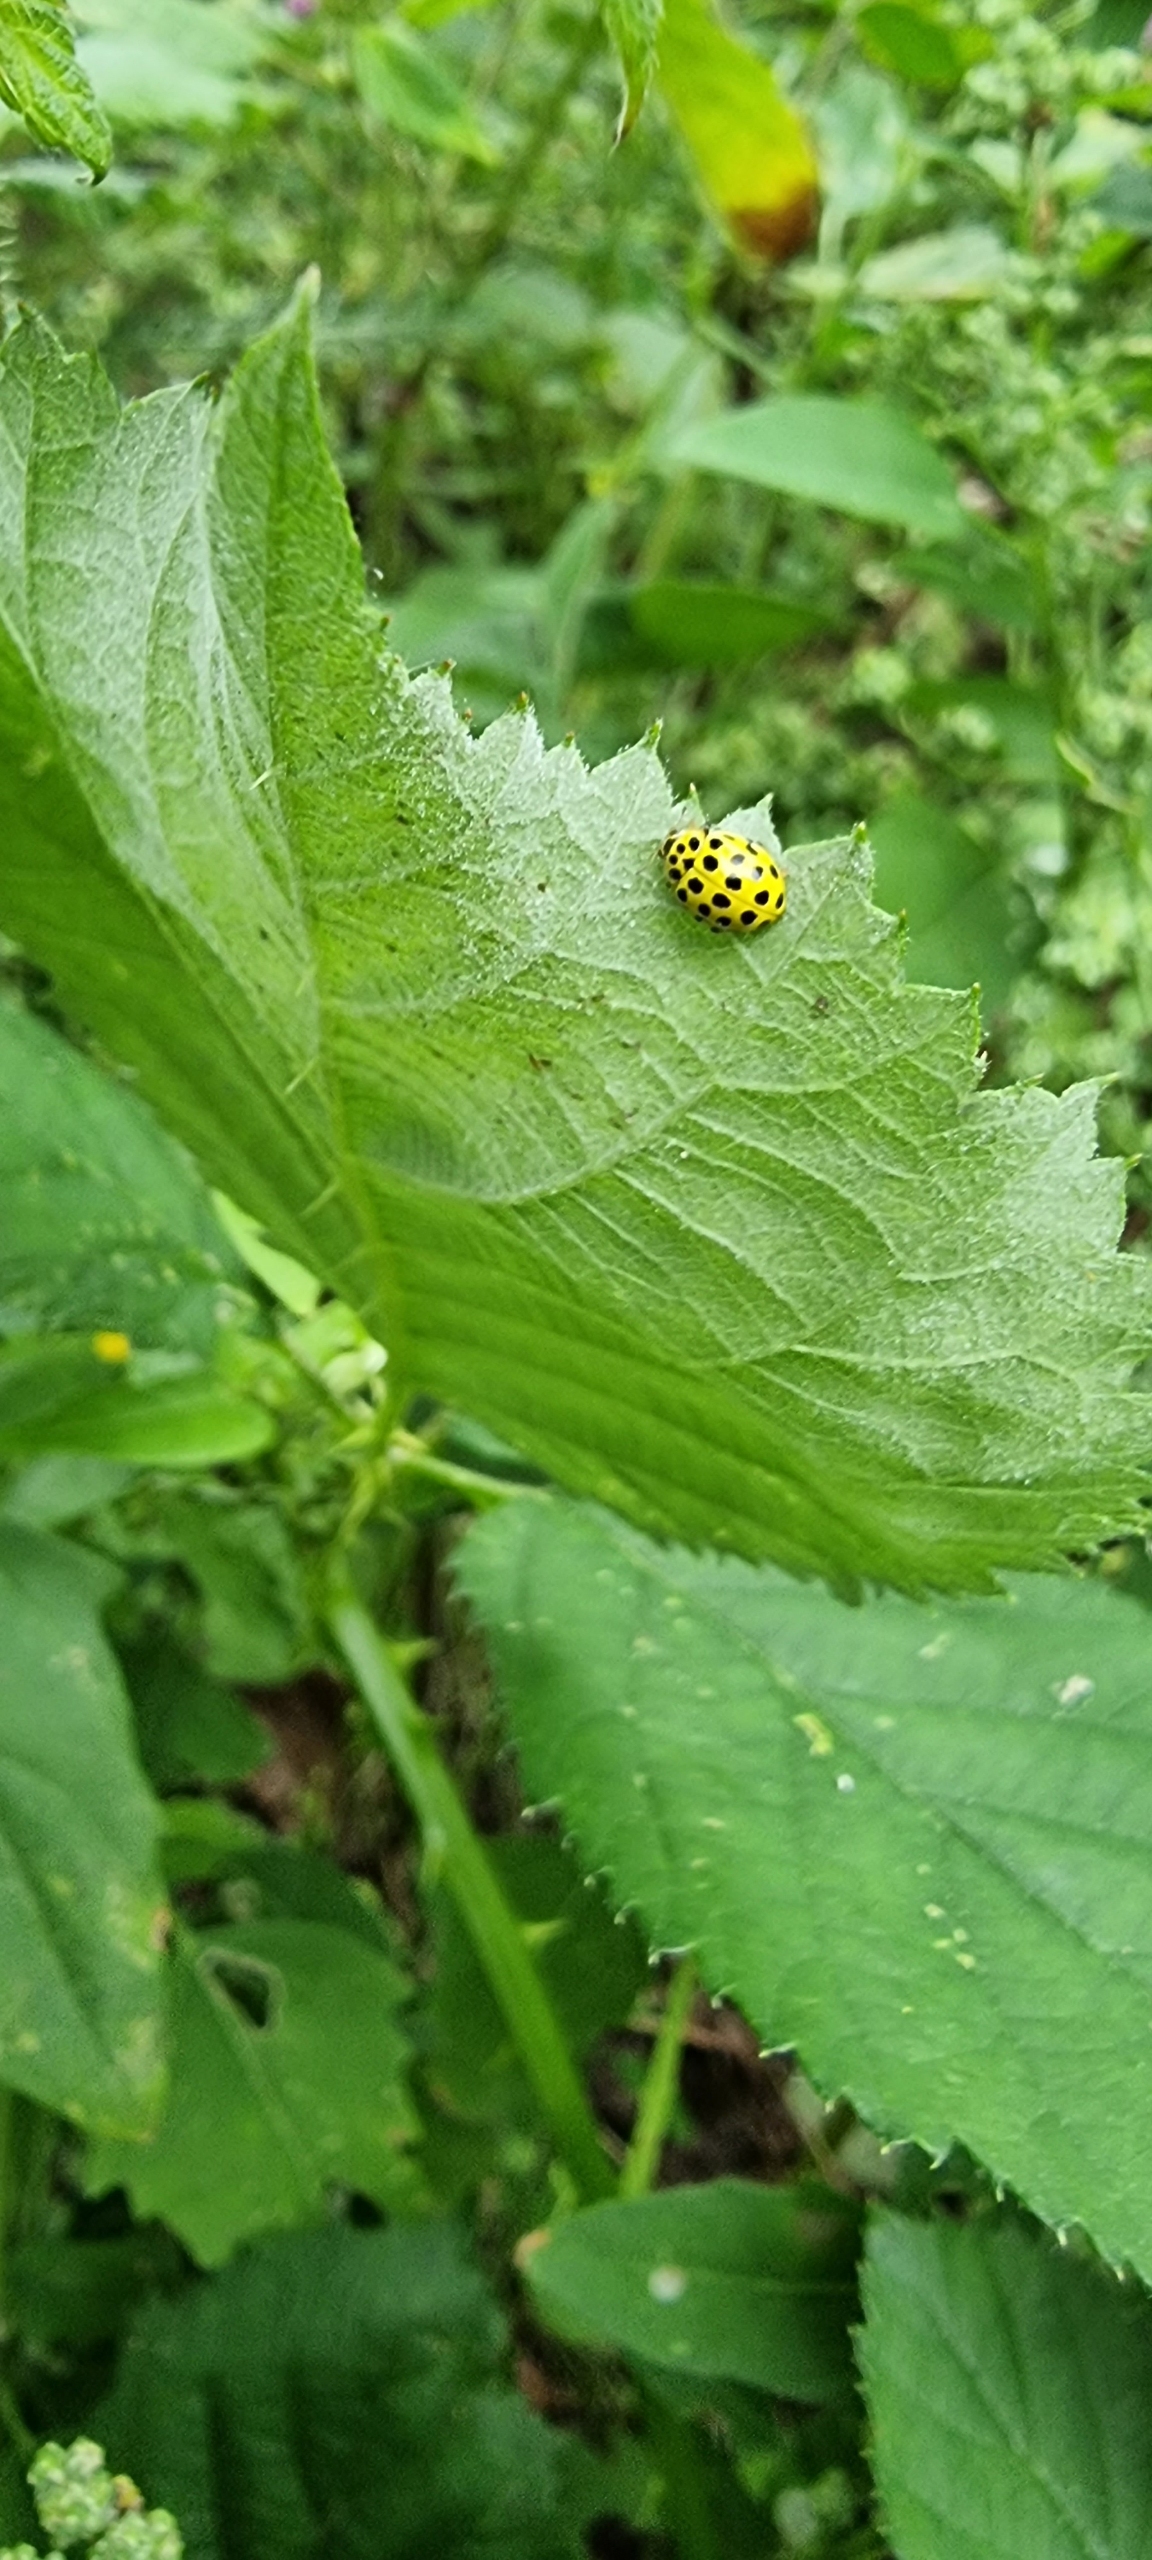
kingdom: Animalia
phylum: Arthropoda
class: Insecta
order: Coleoptera
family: Coccinellidae
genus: Psyllobora
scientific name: Psyllobora vigintiduopunctata
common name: Toogtyveplettet mariehøne
